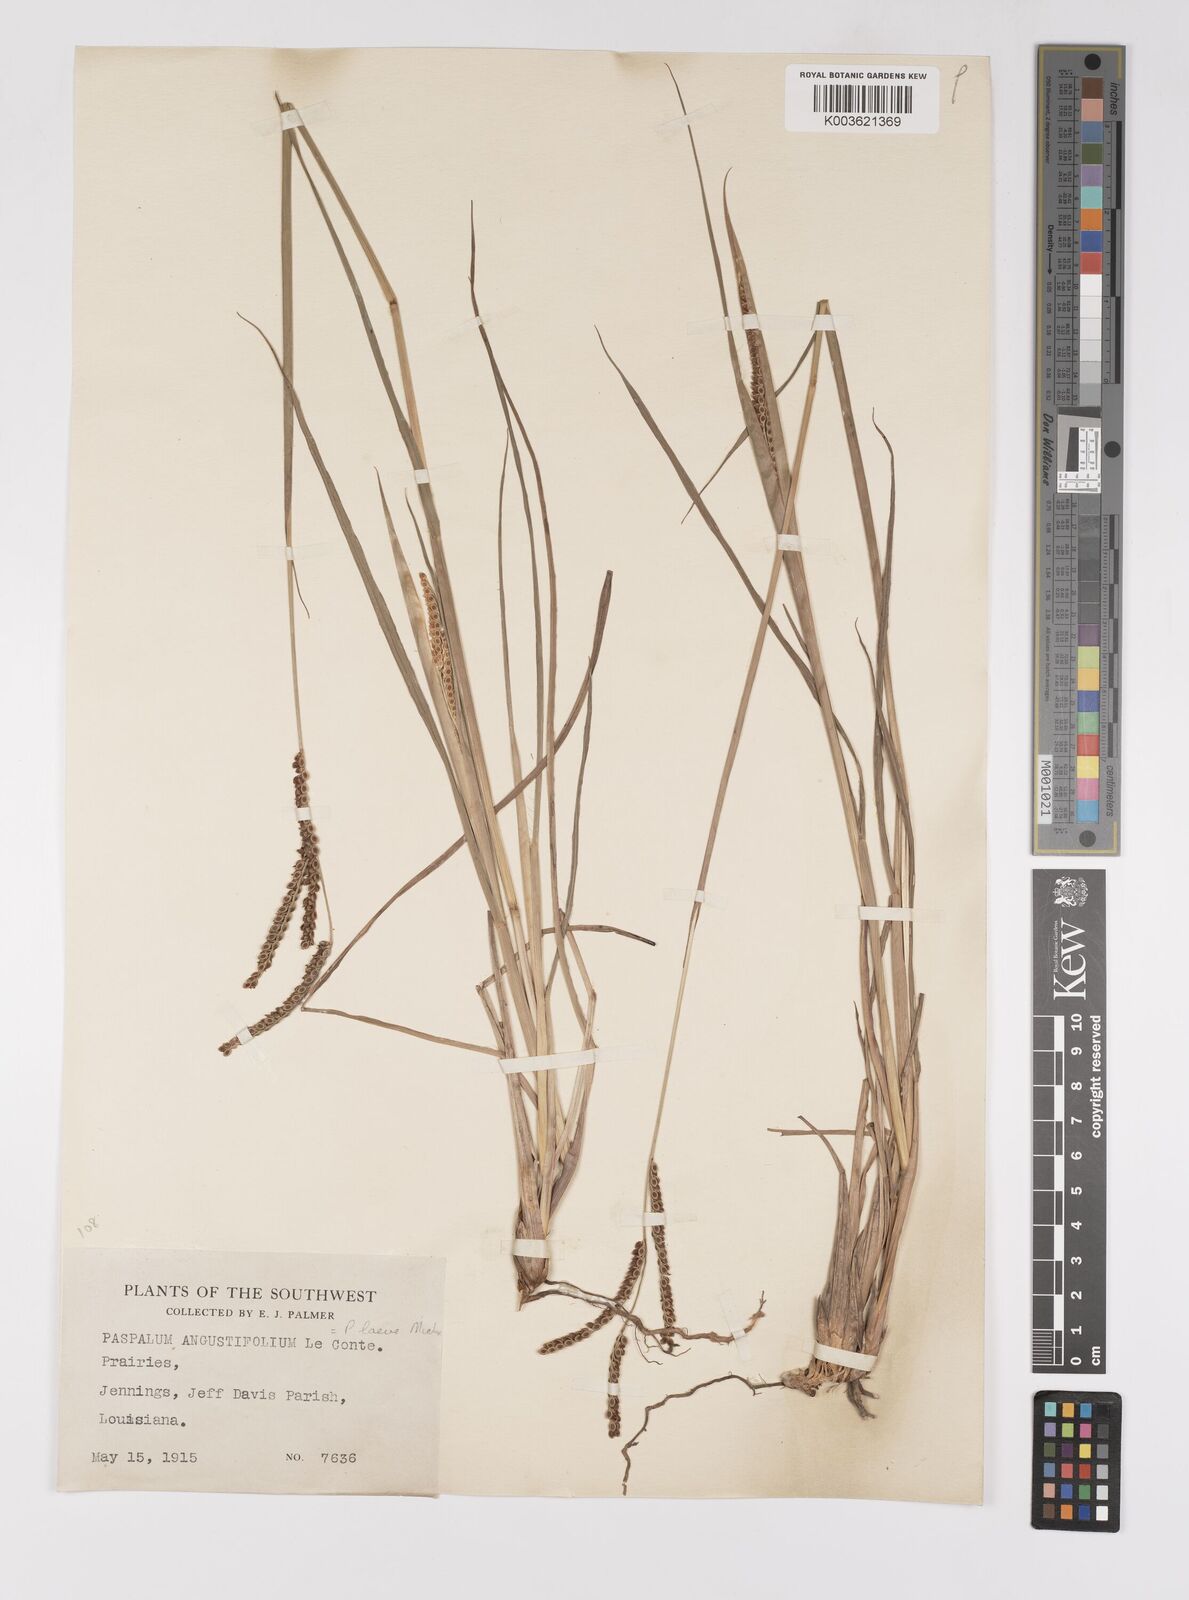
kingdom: Plantae
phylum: Tracheophyta
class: Liliopsida
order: Poales
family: Poaceae
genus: Paspalum
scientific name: Paspalum plicatulum
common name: Top paspalum
